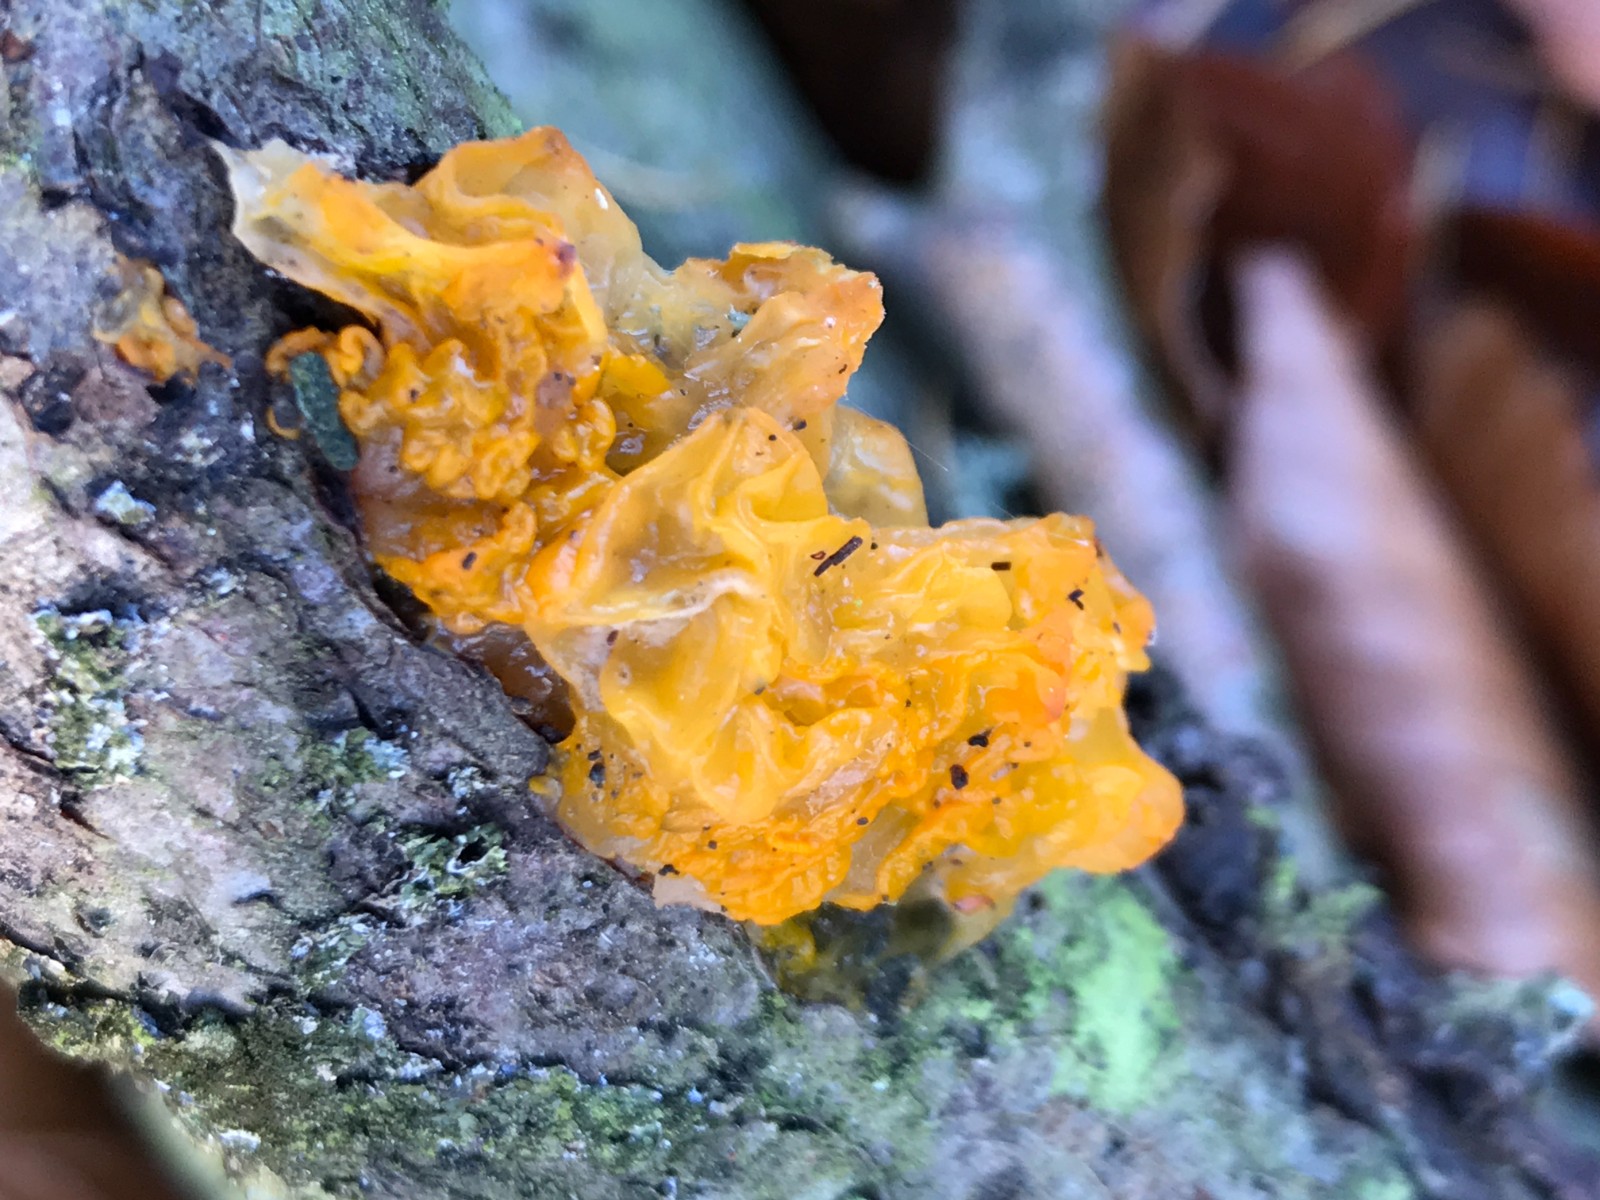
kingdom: Fungi
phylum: Basidiomycota
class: Tremellomycetes
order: Tremellales
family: Tremellaceae
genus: Tremella
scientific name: Tremella mesenterica
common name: gul bævresvamp
